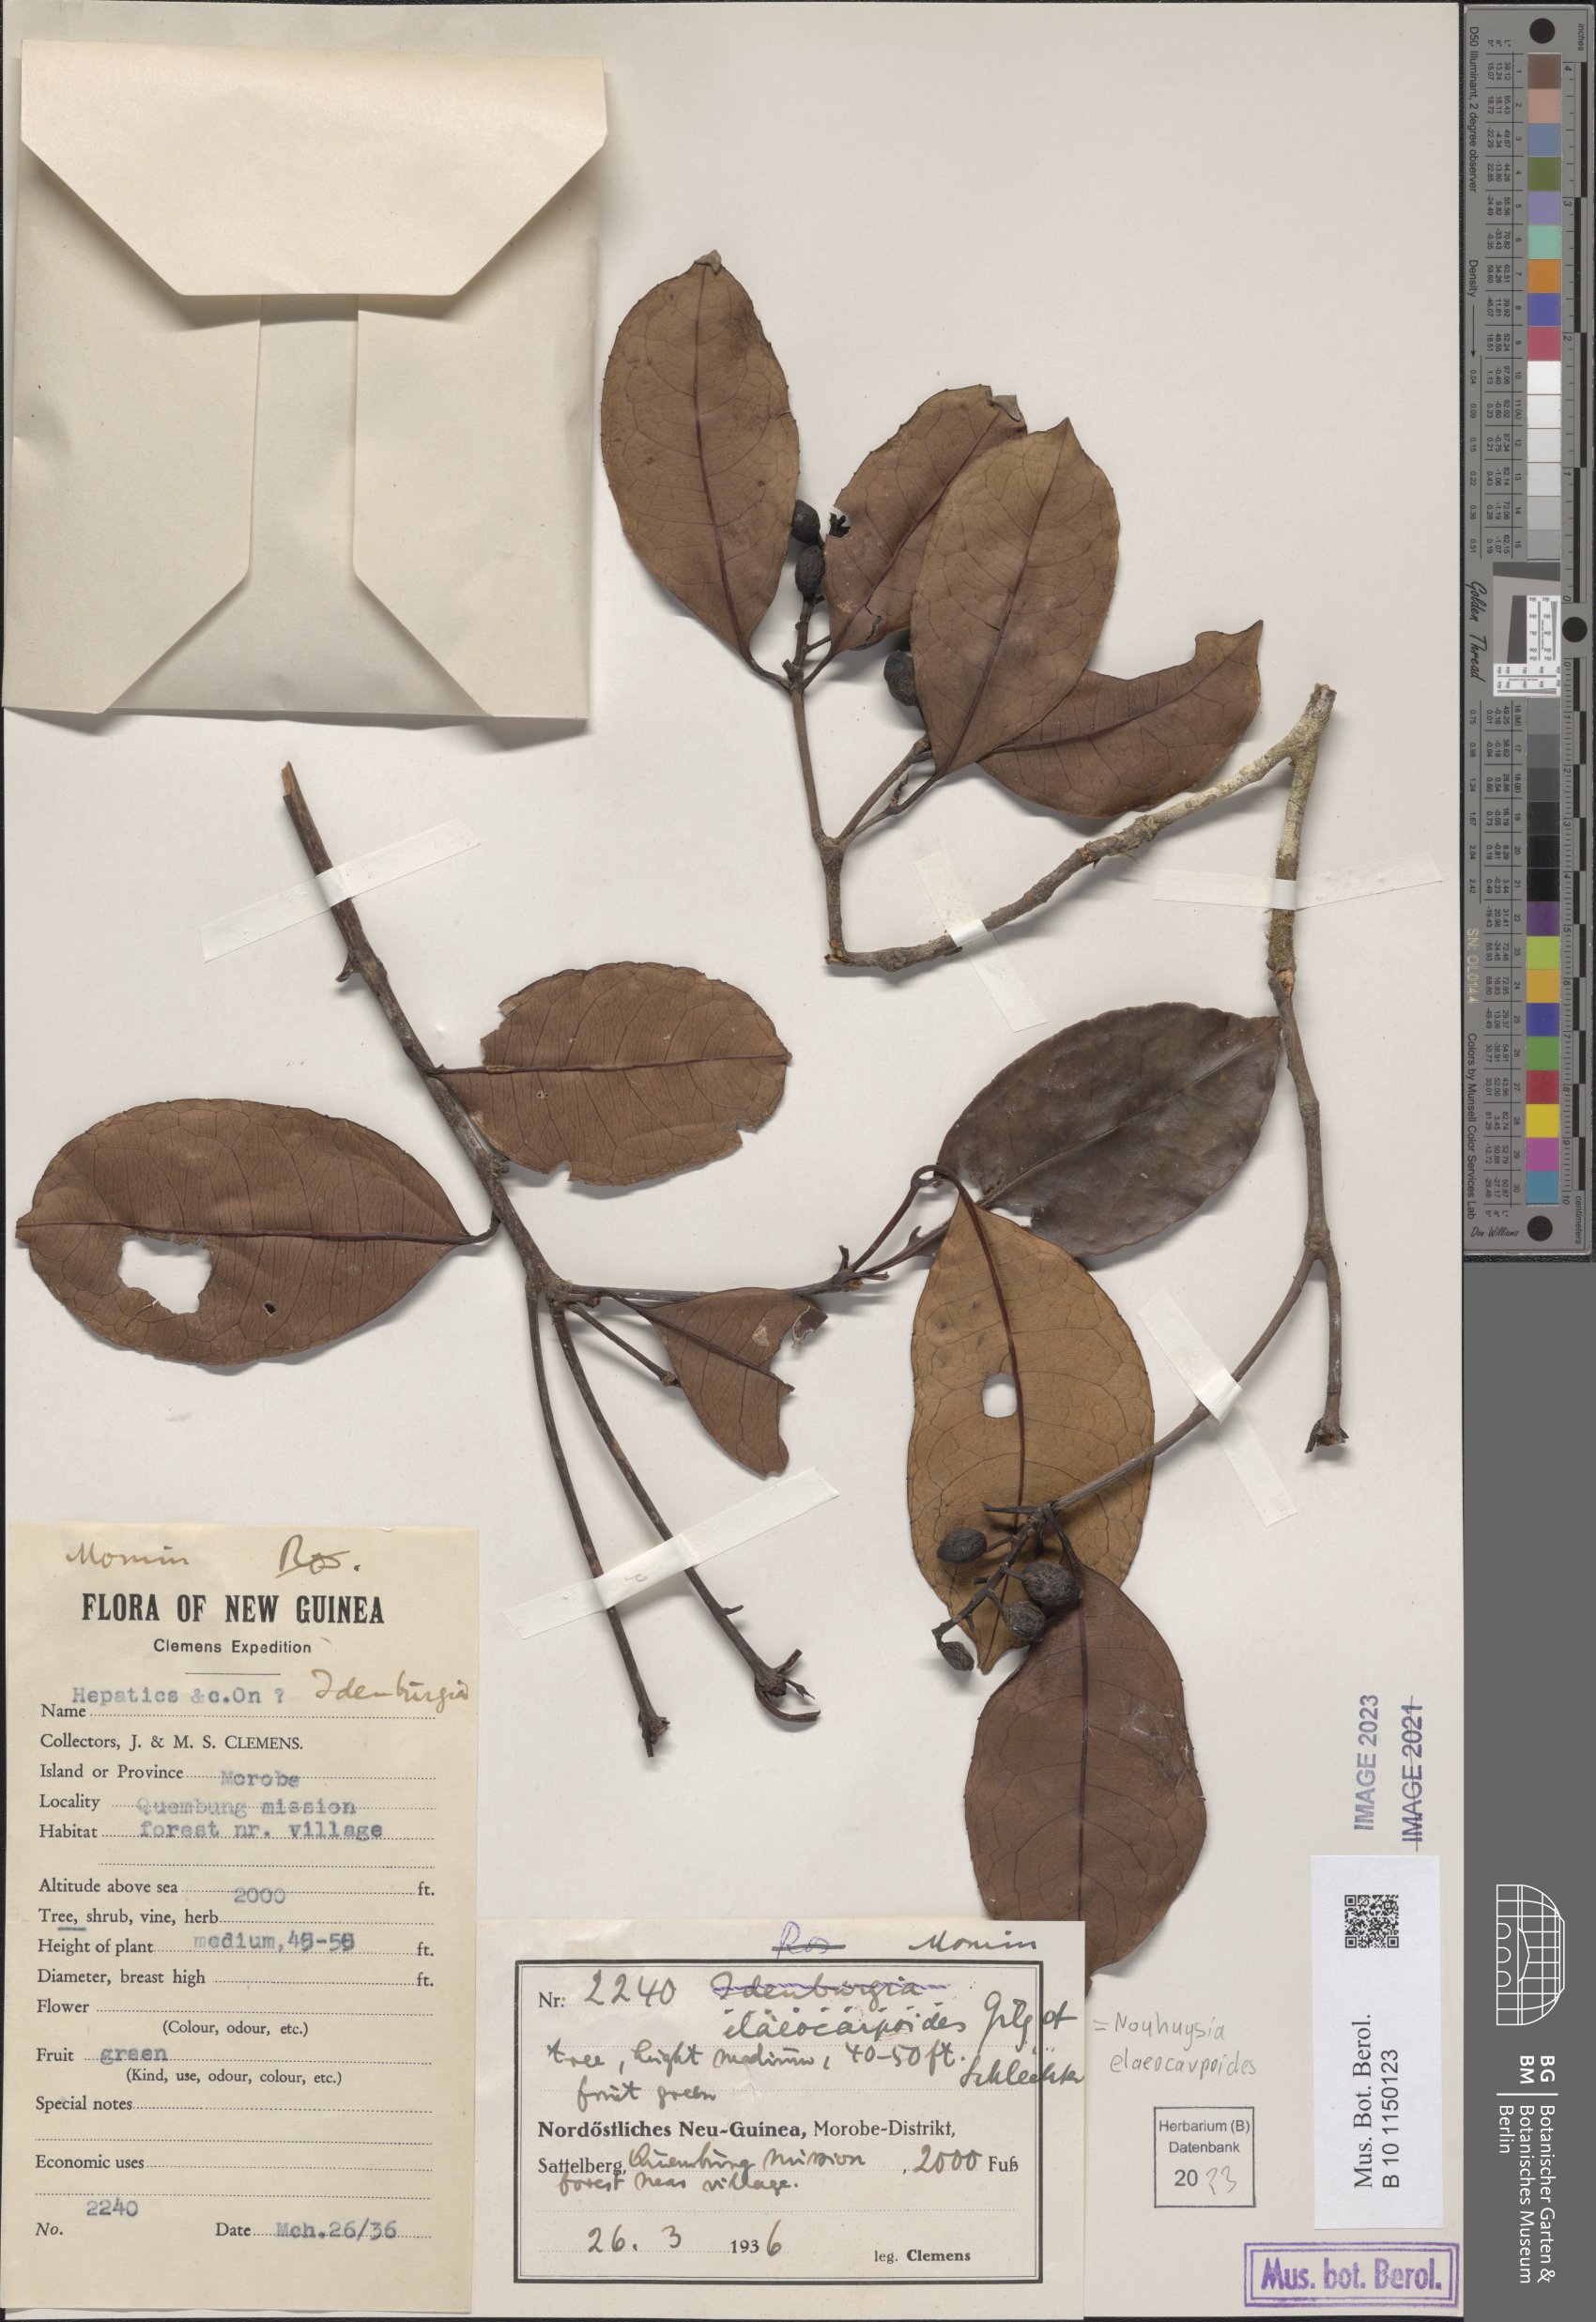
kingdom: Plantae
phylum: Tracheophyta
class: Magnoliopsida
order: Paracryphiales
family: Paracryphiaceae
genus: Sphenostemon
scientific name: Sphenostemon papuanus
